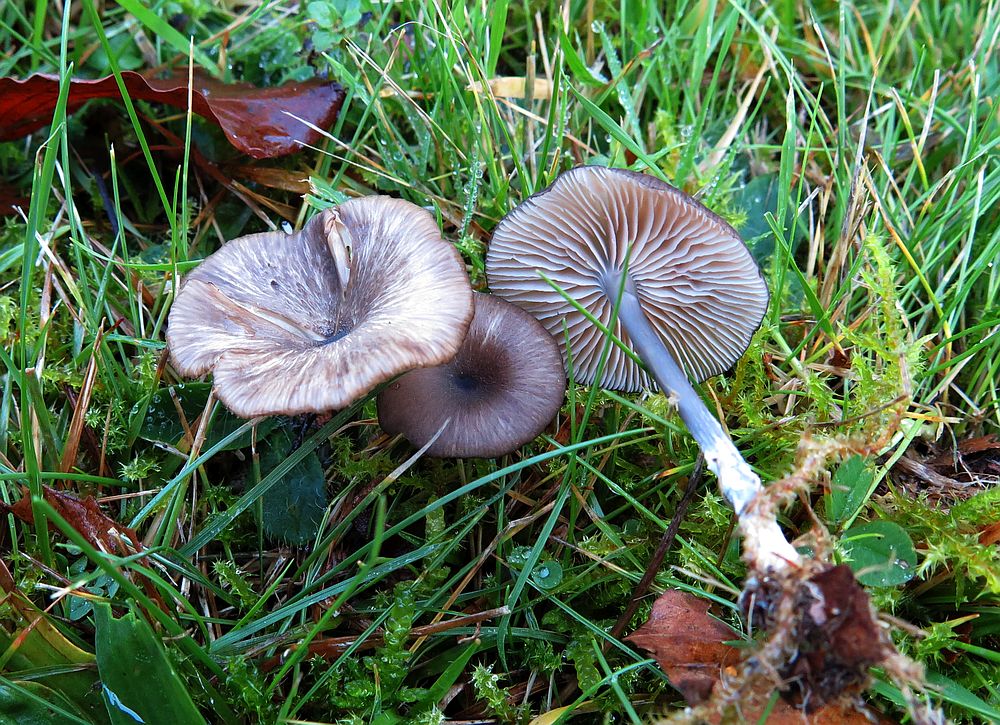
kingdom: Fungi
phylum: Basidiomycota
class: Agaricomycetes
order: Agaricales
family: Entolomataceae
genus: Entoloma
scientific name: Entoloma allospermum
